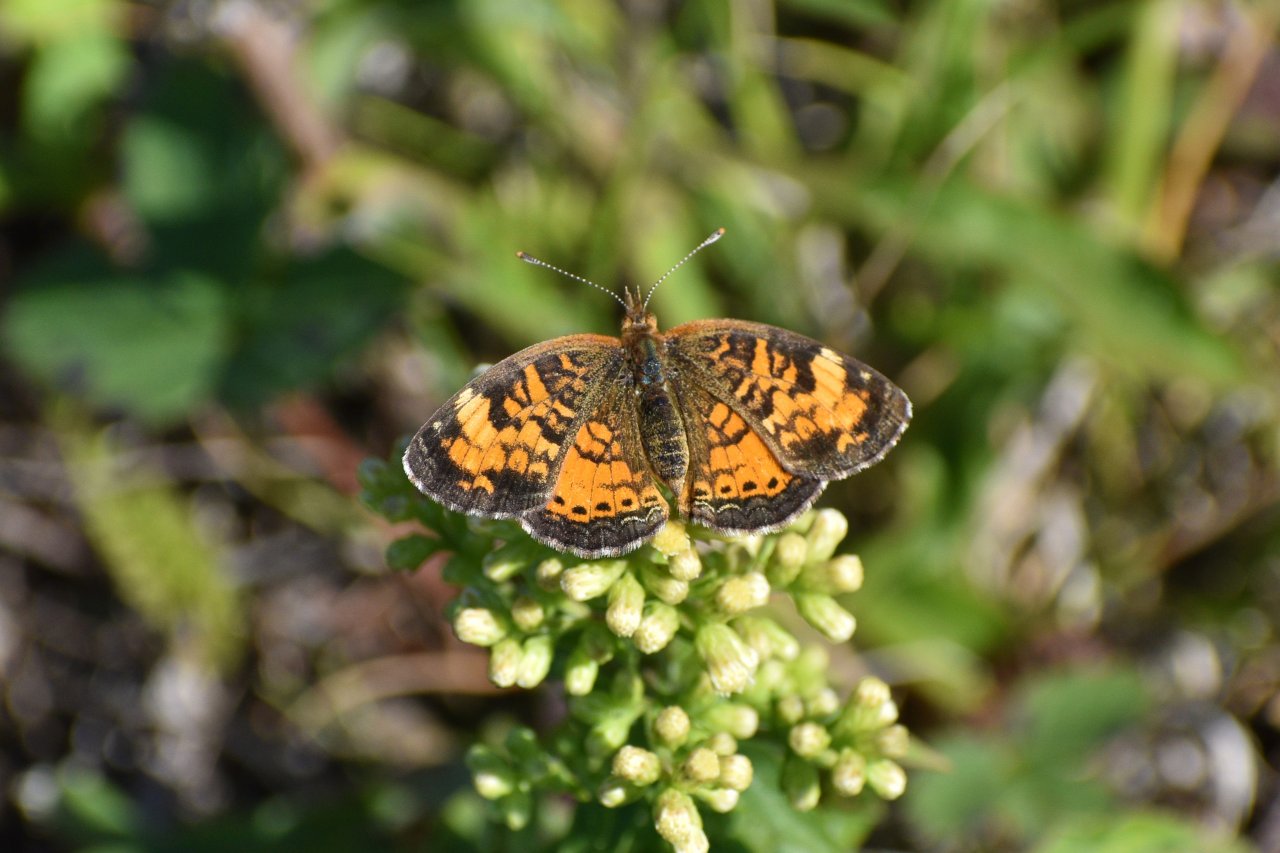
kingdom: Animalia
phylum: Arthropoda
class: Insecta
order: Lepidoptera
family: Nymphalidae
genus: Phyciodes
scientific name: Phyciodes tharos
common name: Northern Crescent
